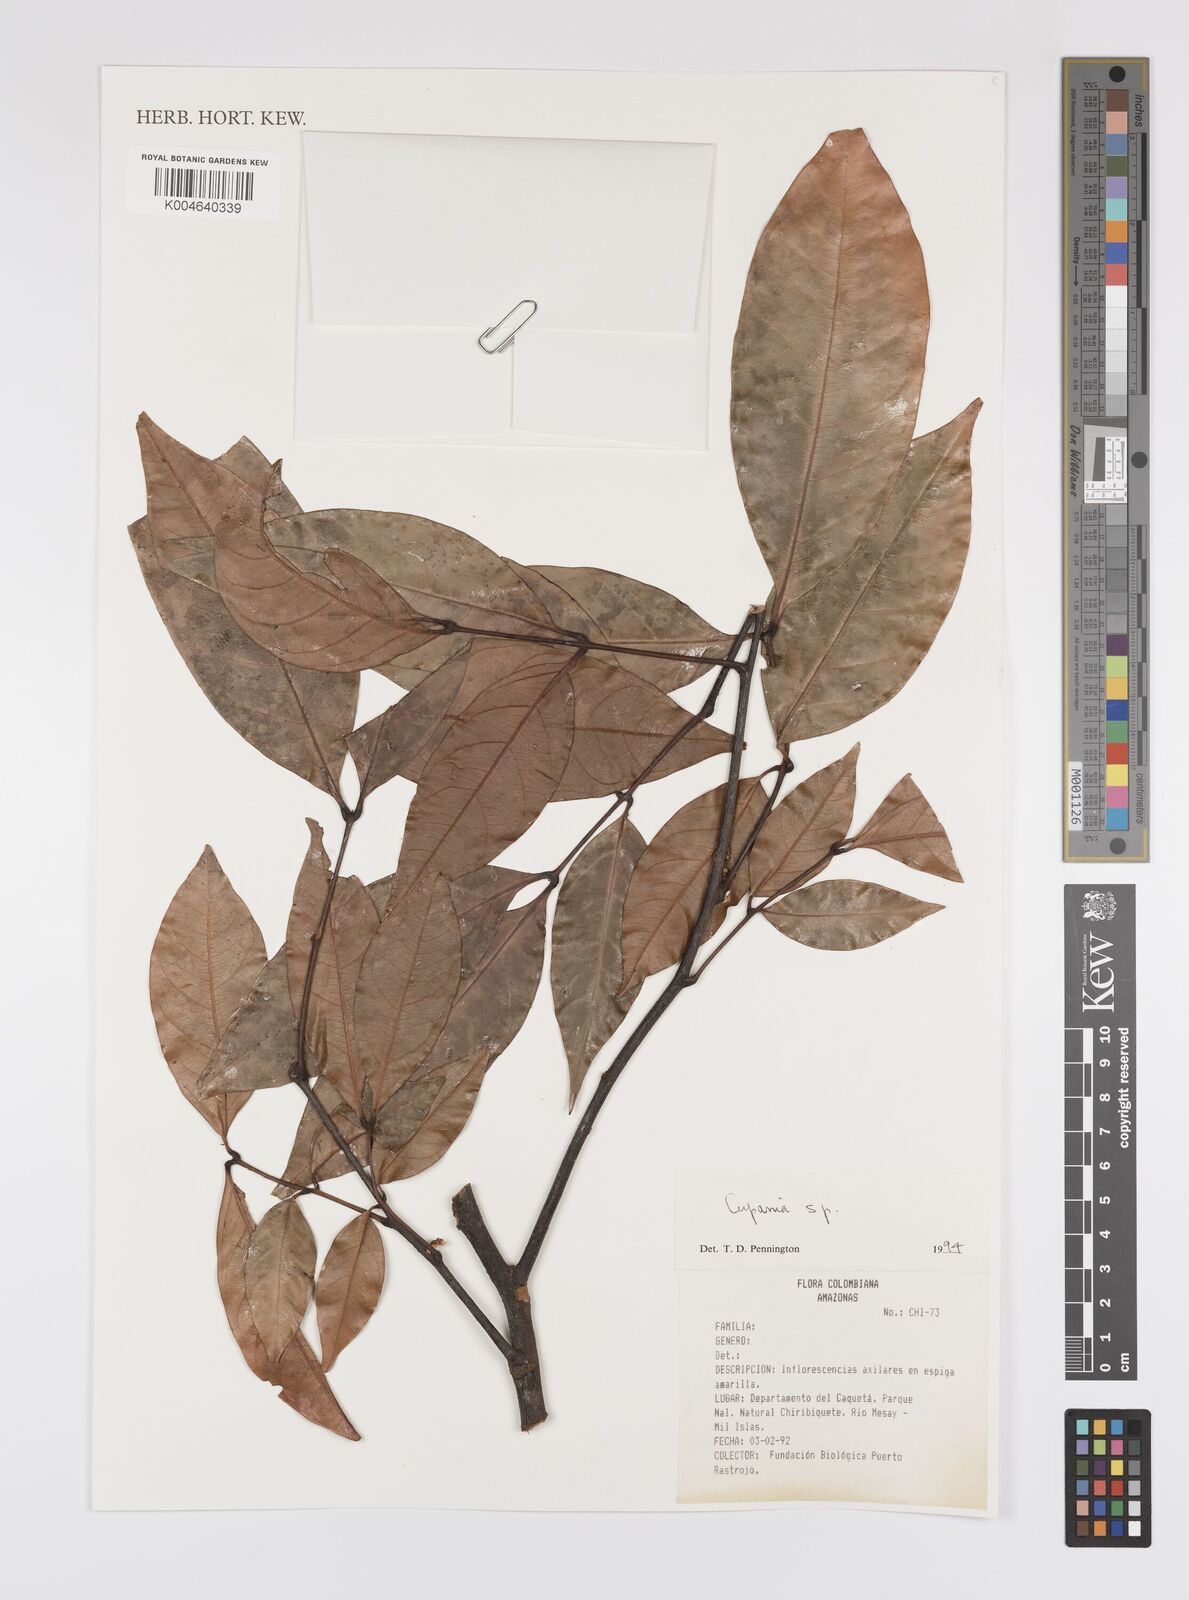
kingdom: Plantae
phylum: Tracheophyta
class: Magnoliopsida
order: Sapindales
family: Sapindaceae
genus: Cupania
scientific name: Cupania
